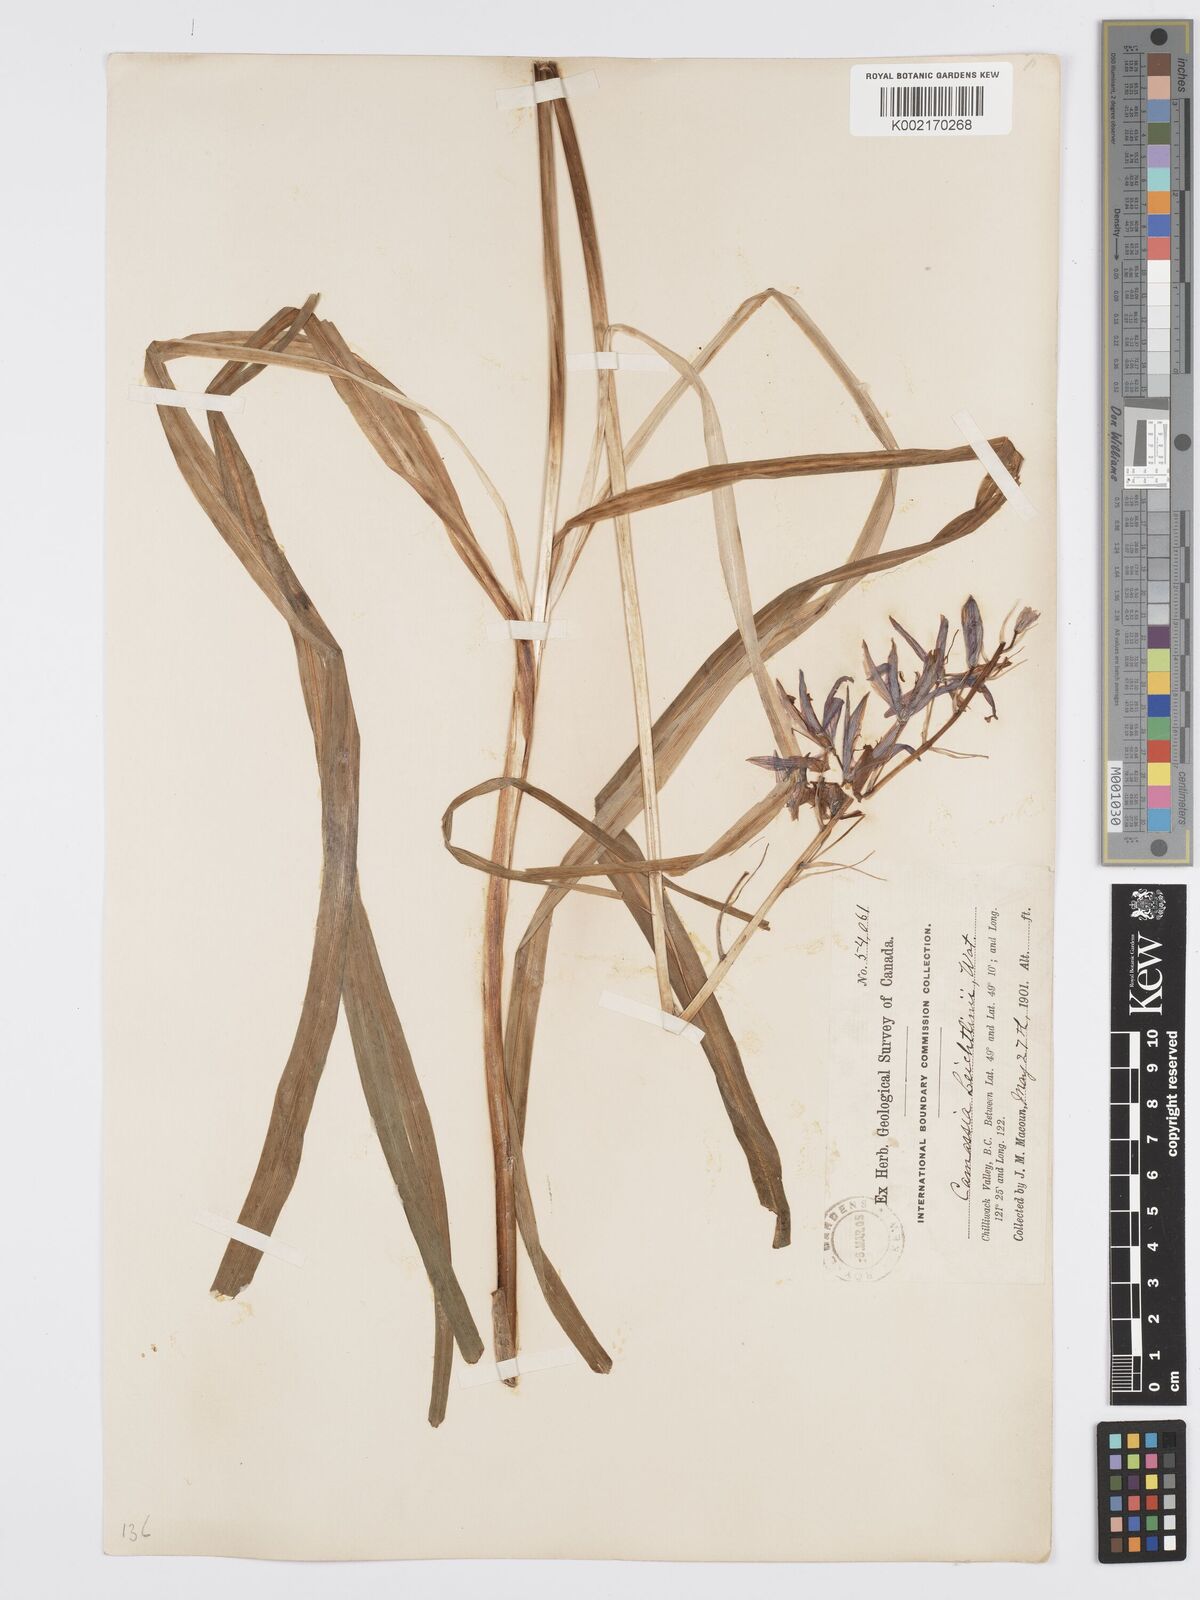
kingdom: Plantae
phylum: Tracheophyta
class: Liliopsida
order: Asparagales
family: Asparagaceae
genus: Camassia
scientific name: Camassia leichtlinii
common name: Leichtlin's camas
